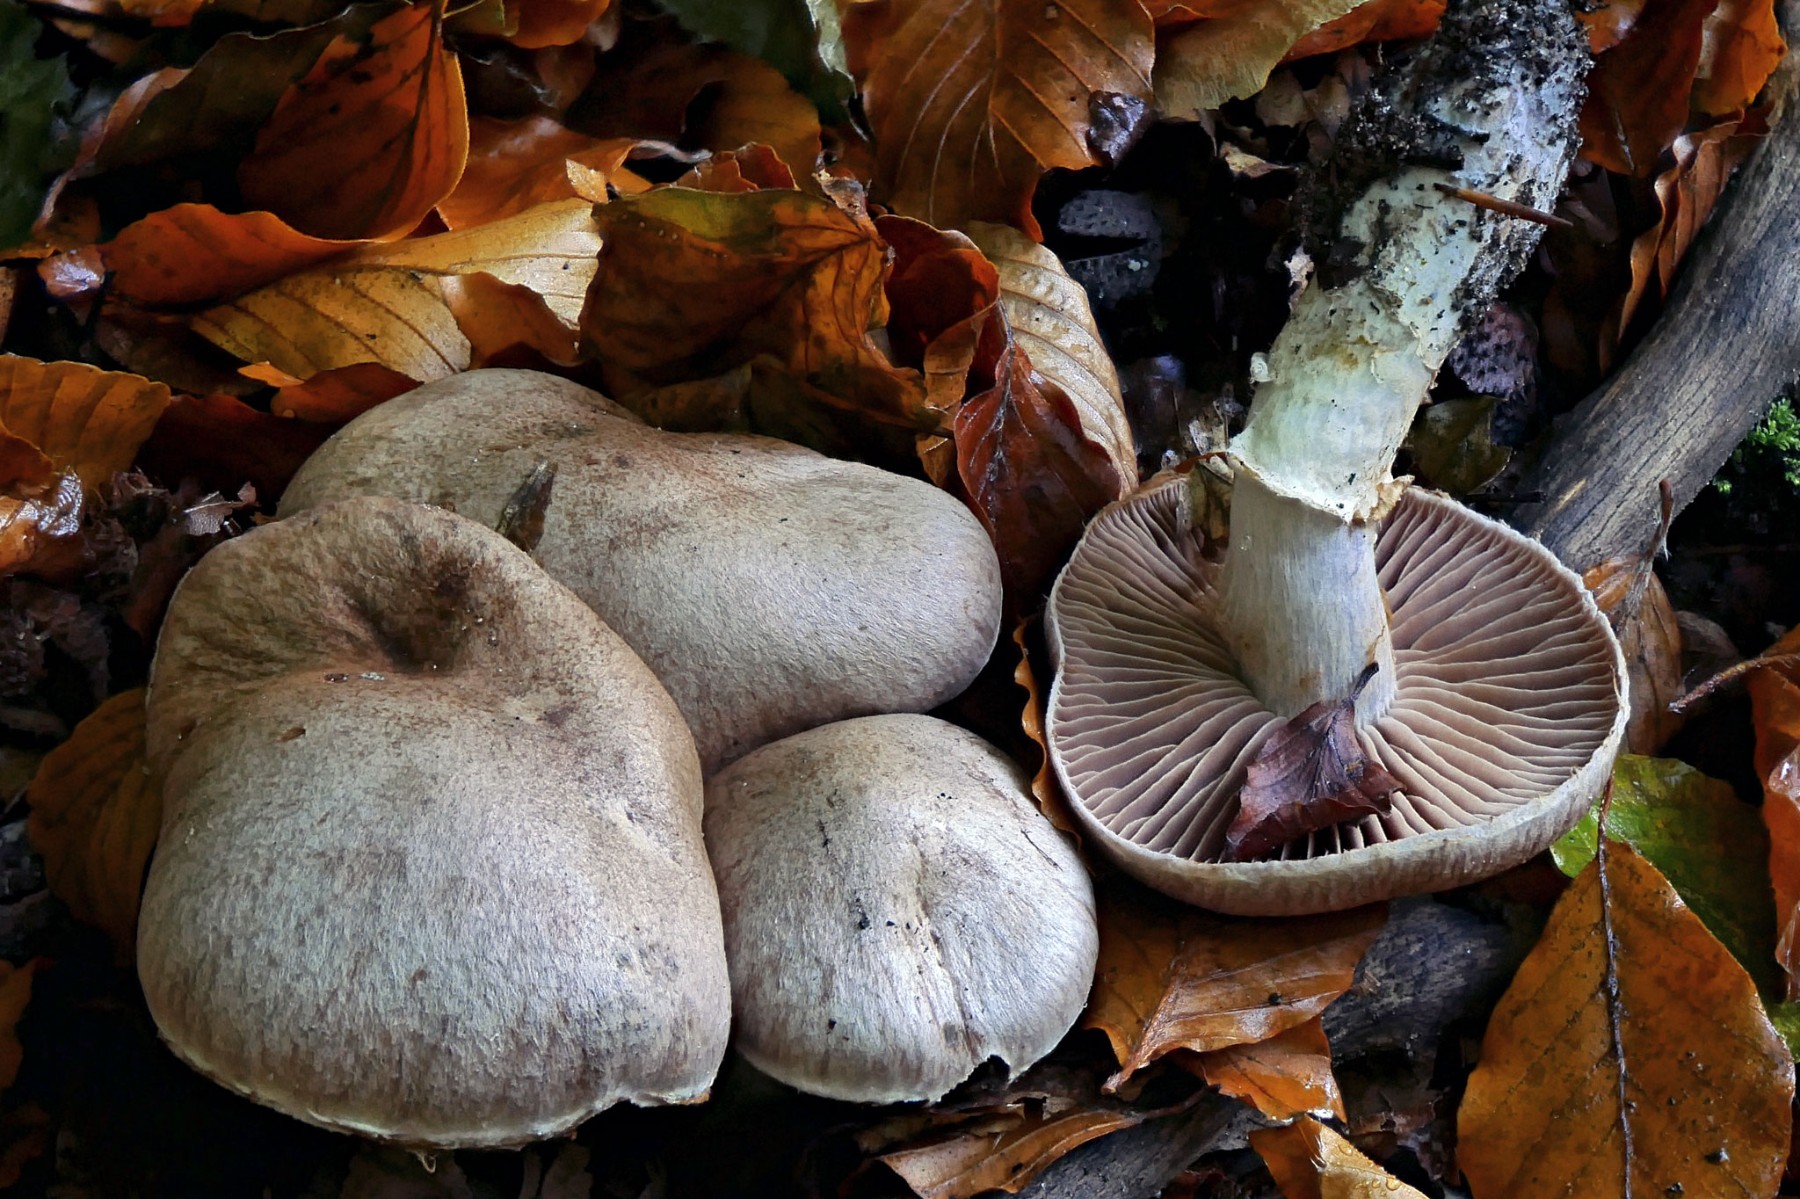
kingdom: Fungi
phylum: Basidiomycota
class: Agaricomycetes
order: Agaricales
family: Cortinariaceae
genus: Cortinarius
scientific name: Cortinarius torvus
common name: champignonagtig slørhat
